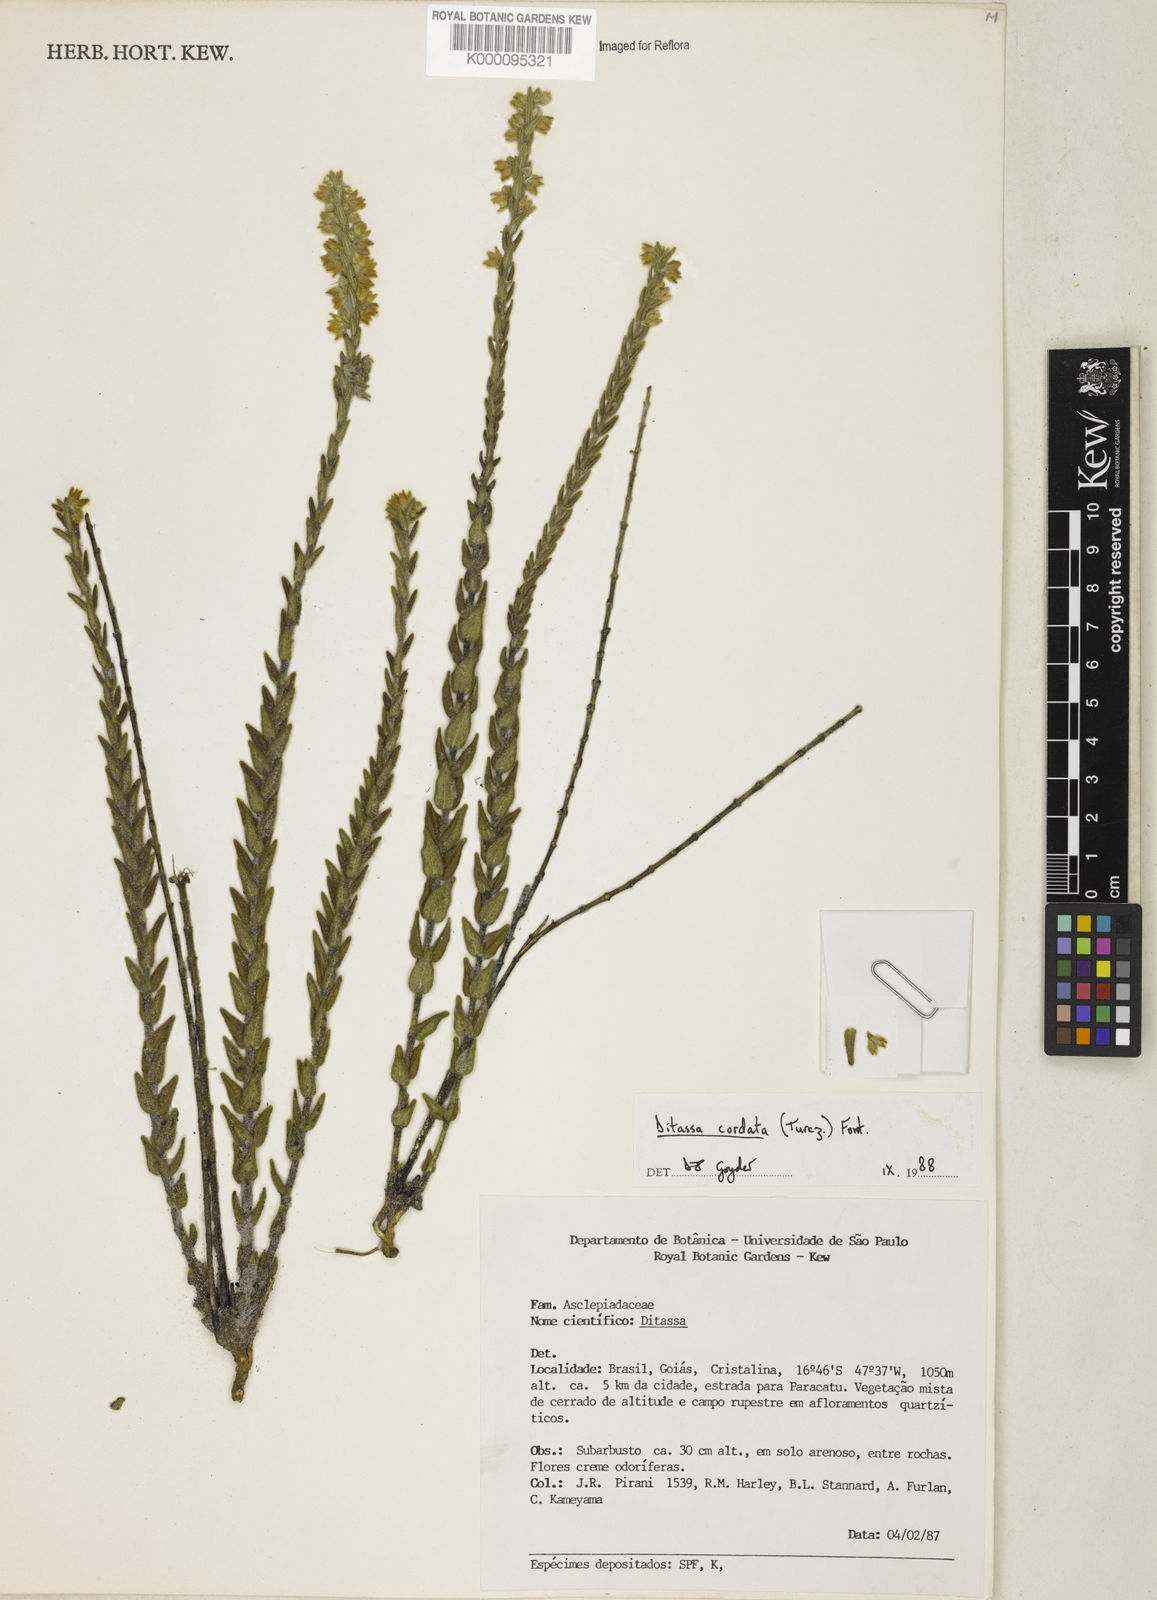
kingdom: Plantae
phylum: Tracheophyta
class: Magnoliopsida
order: Gentianales
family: Apocynaceae
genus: Minaria
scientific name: Minaria cordata
